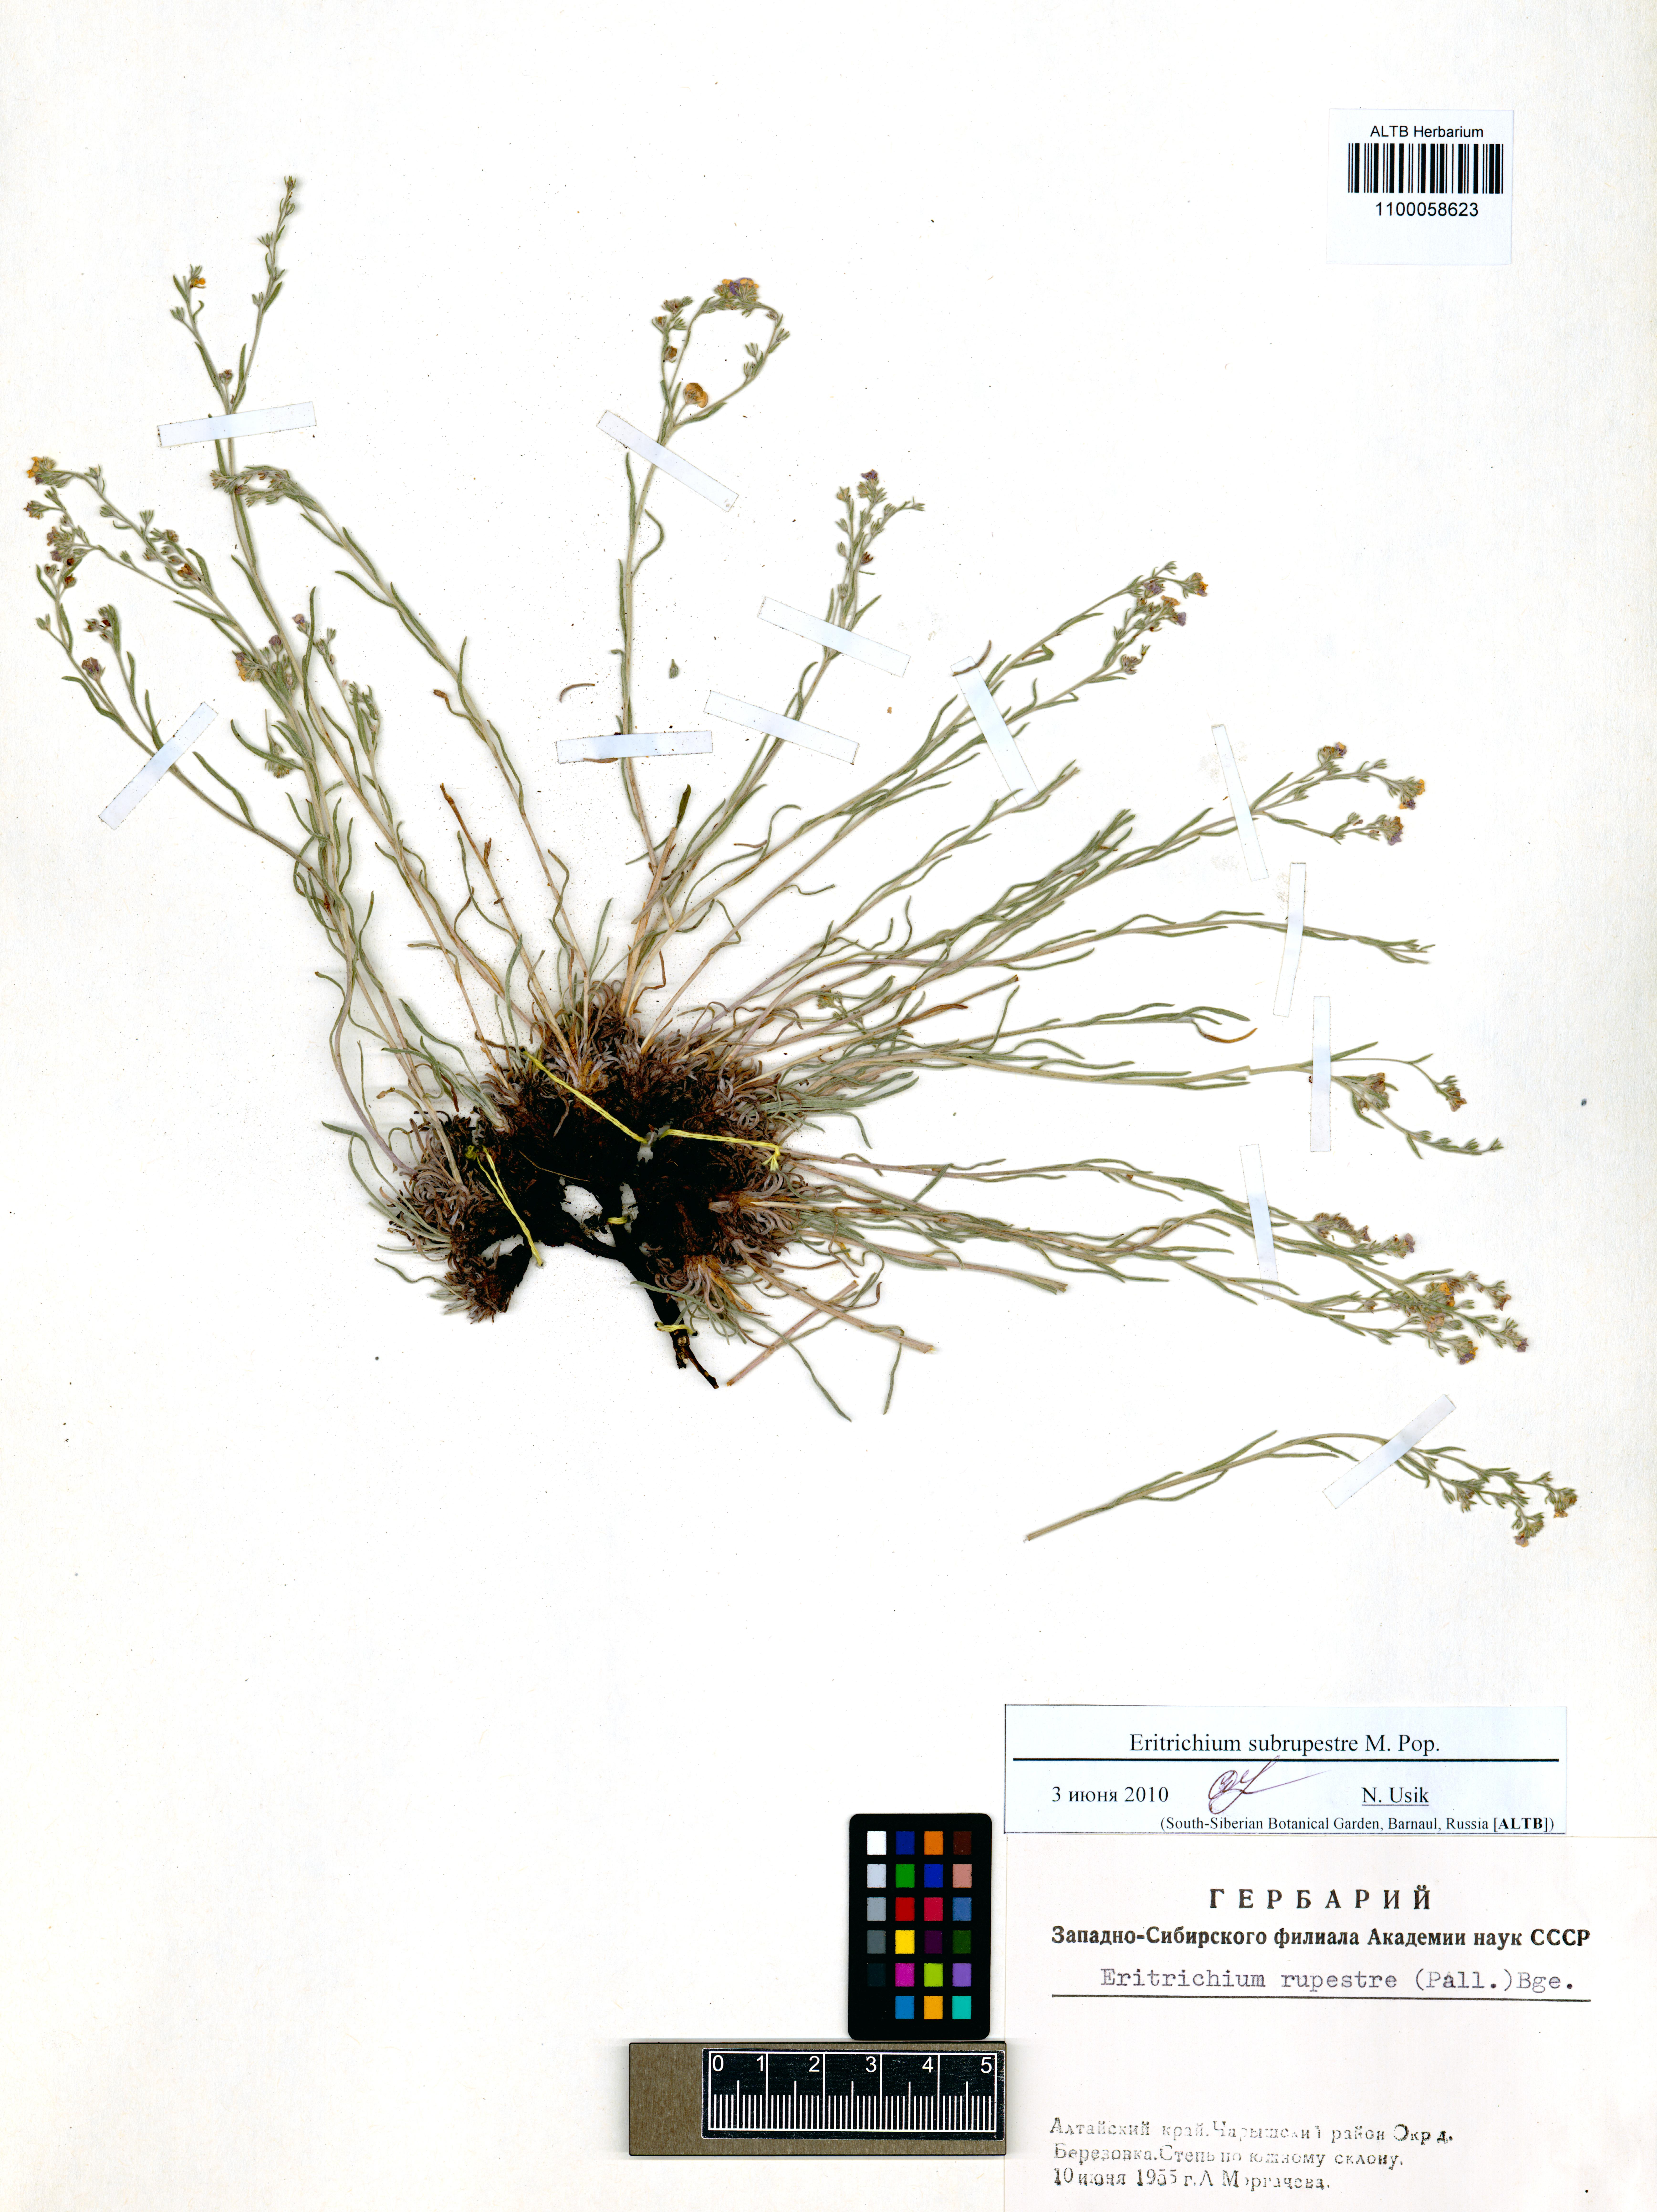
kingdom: Plantae
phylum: Tracheophyta
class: Magnoliopsida
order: Boraginales
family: Boraginaceae
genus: Eritrichium
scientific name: Eritrichium pauciflorum
